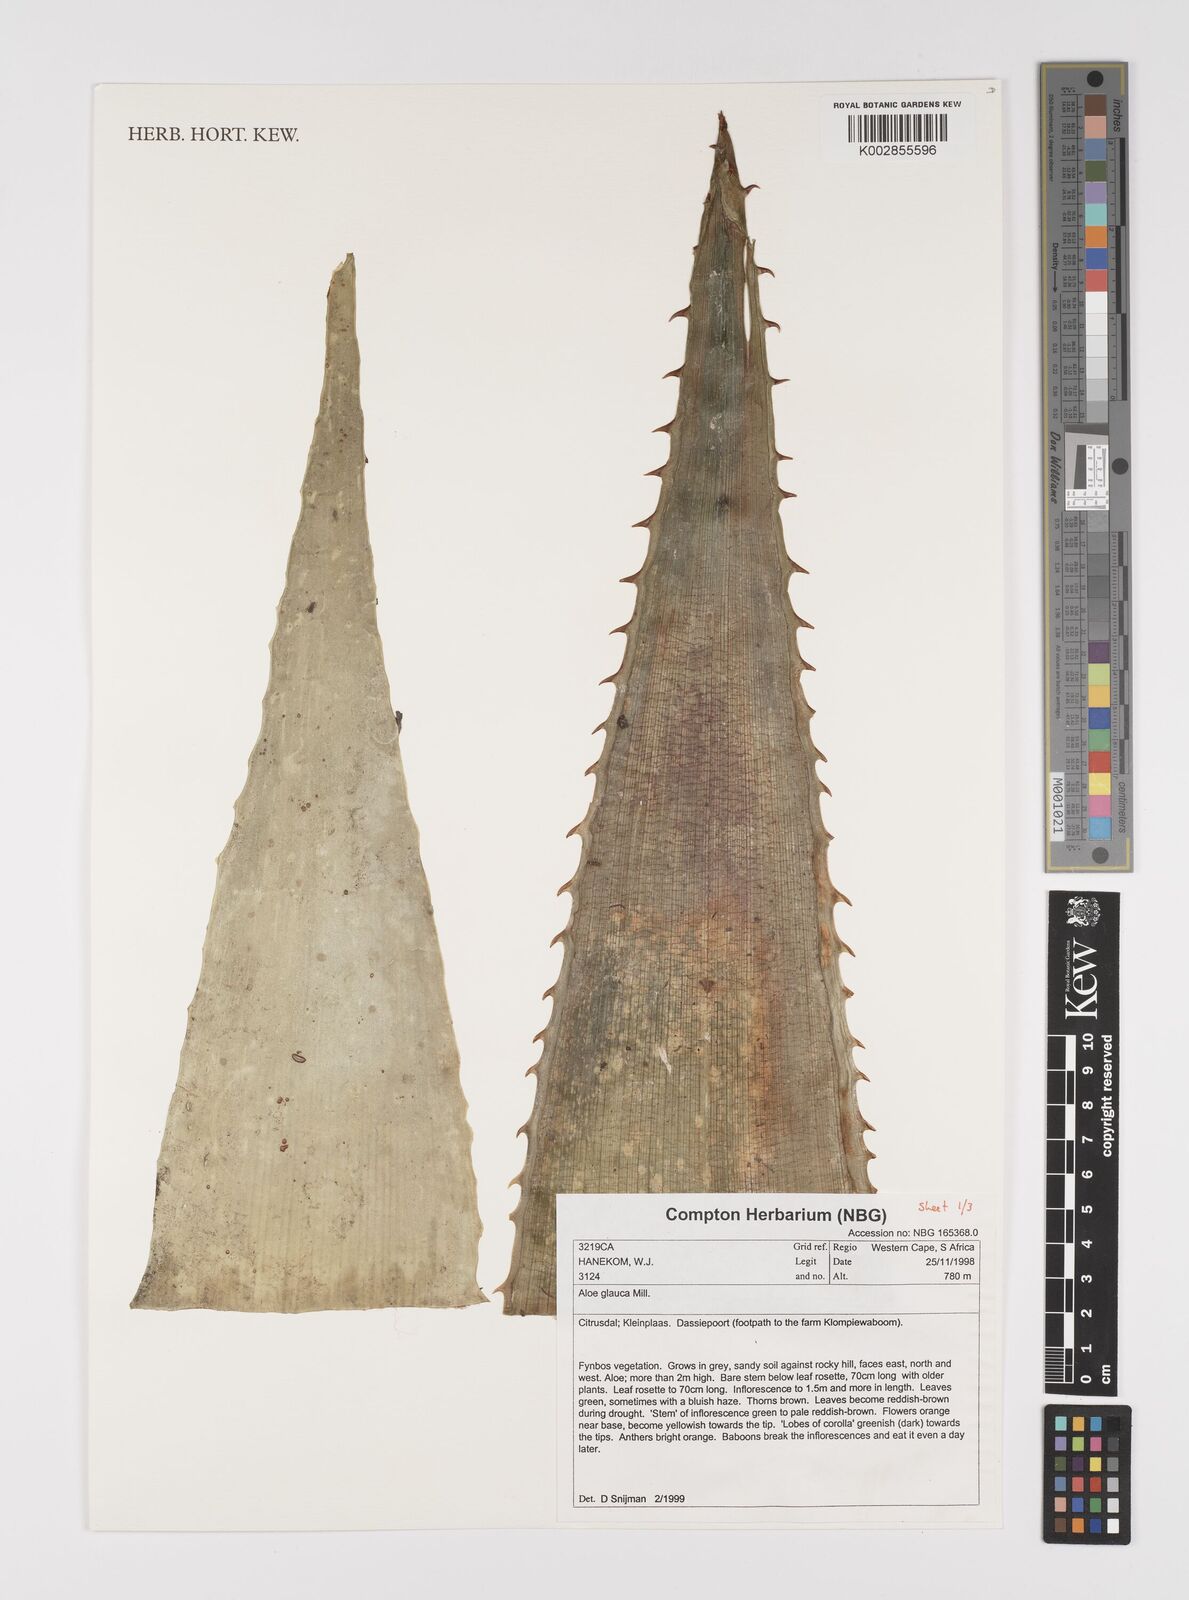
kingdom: Plantae
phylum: Tracheophyta
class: Liliopsida
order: Asparagales
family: Asphodelaceae
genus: Aloe
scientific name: Aloe glauca
